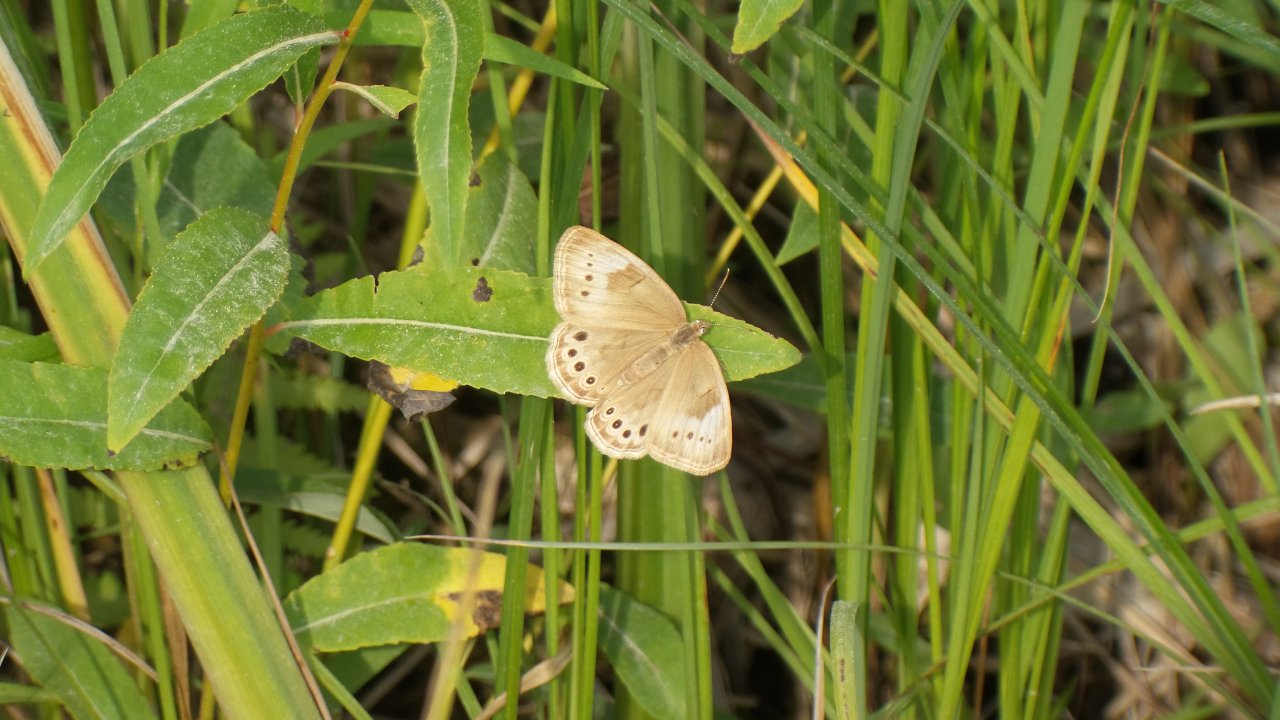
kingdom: Animalia
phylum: Arthropoda
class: Insecta
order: Lepidoptera
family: Nymphalidae
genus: Lethe
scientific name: Lethe eurydice
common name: Eyed Brown
